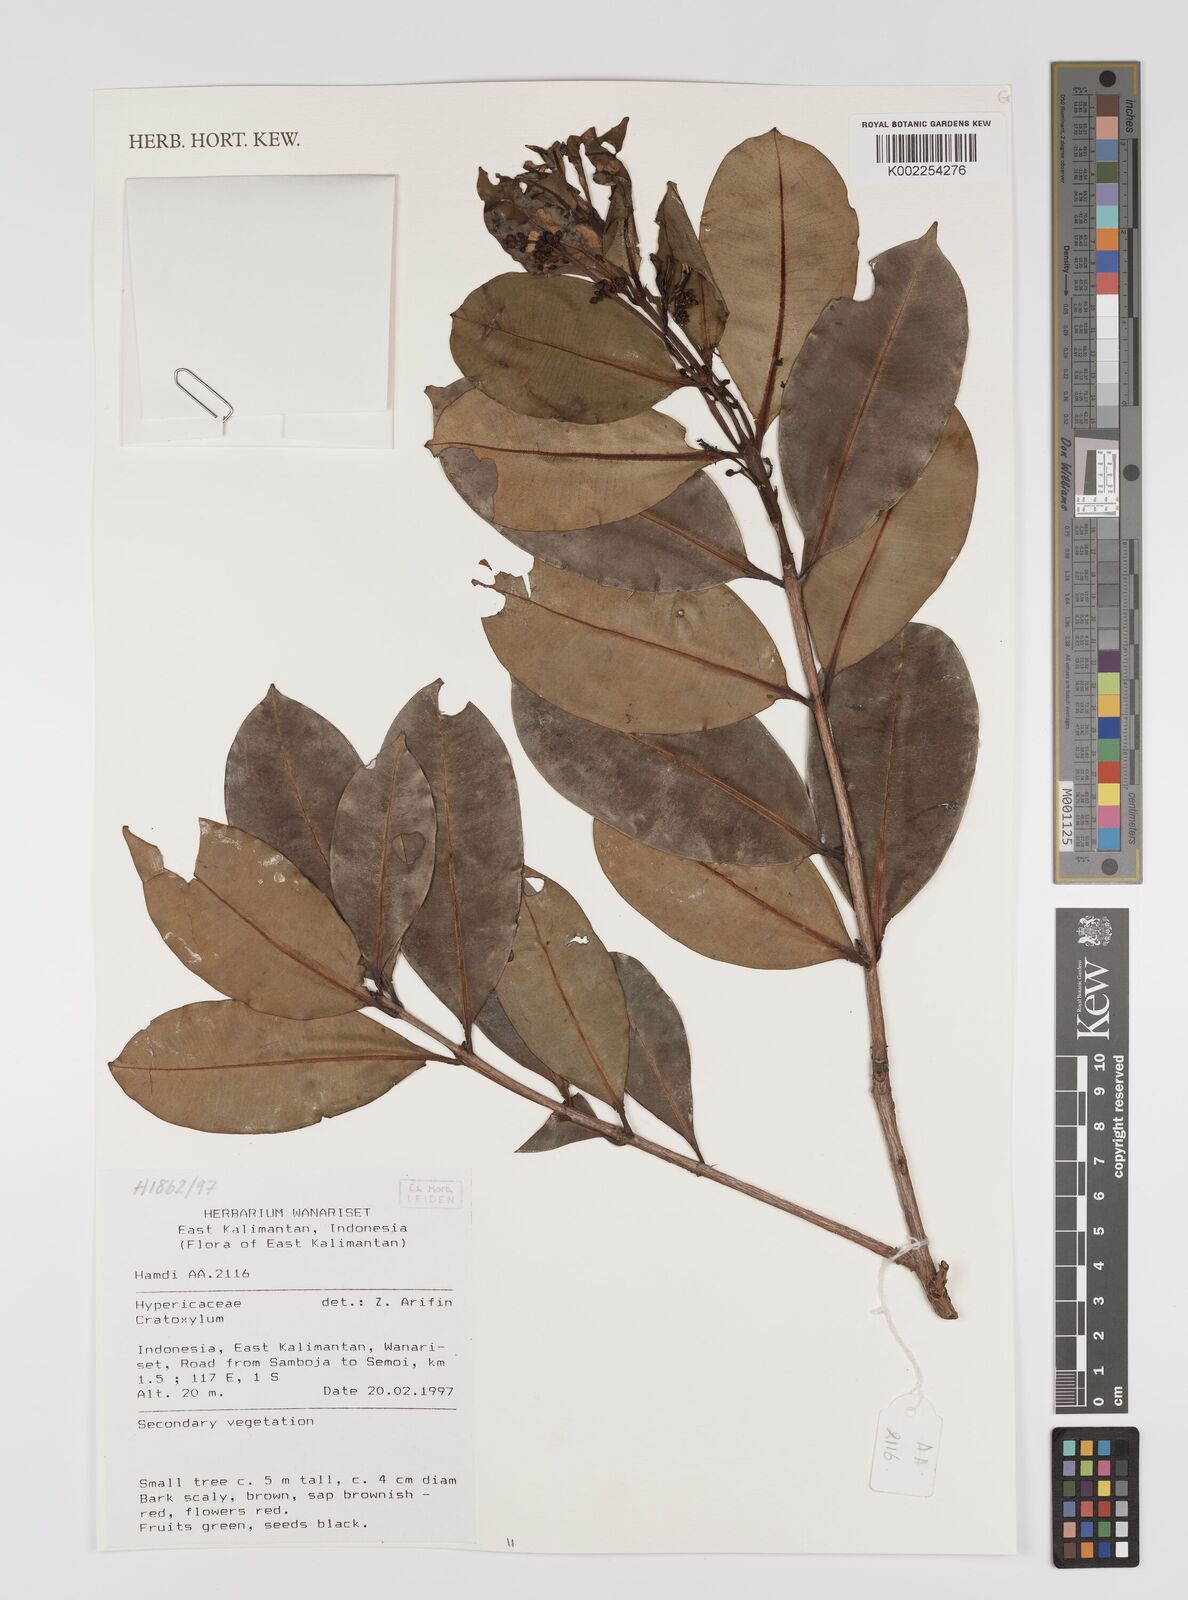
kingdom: Plantae
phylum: Tracheophyta
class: Magnoliopsida
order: Malpighiales
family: Hypericaceae
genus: Cratoxylum
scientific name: Cratoxylum
